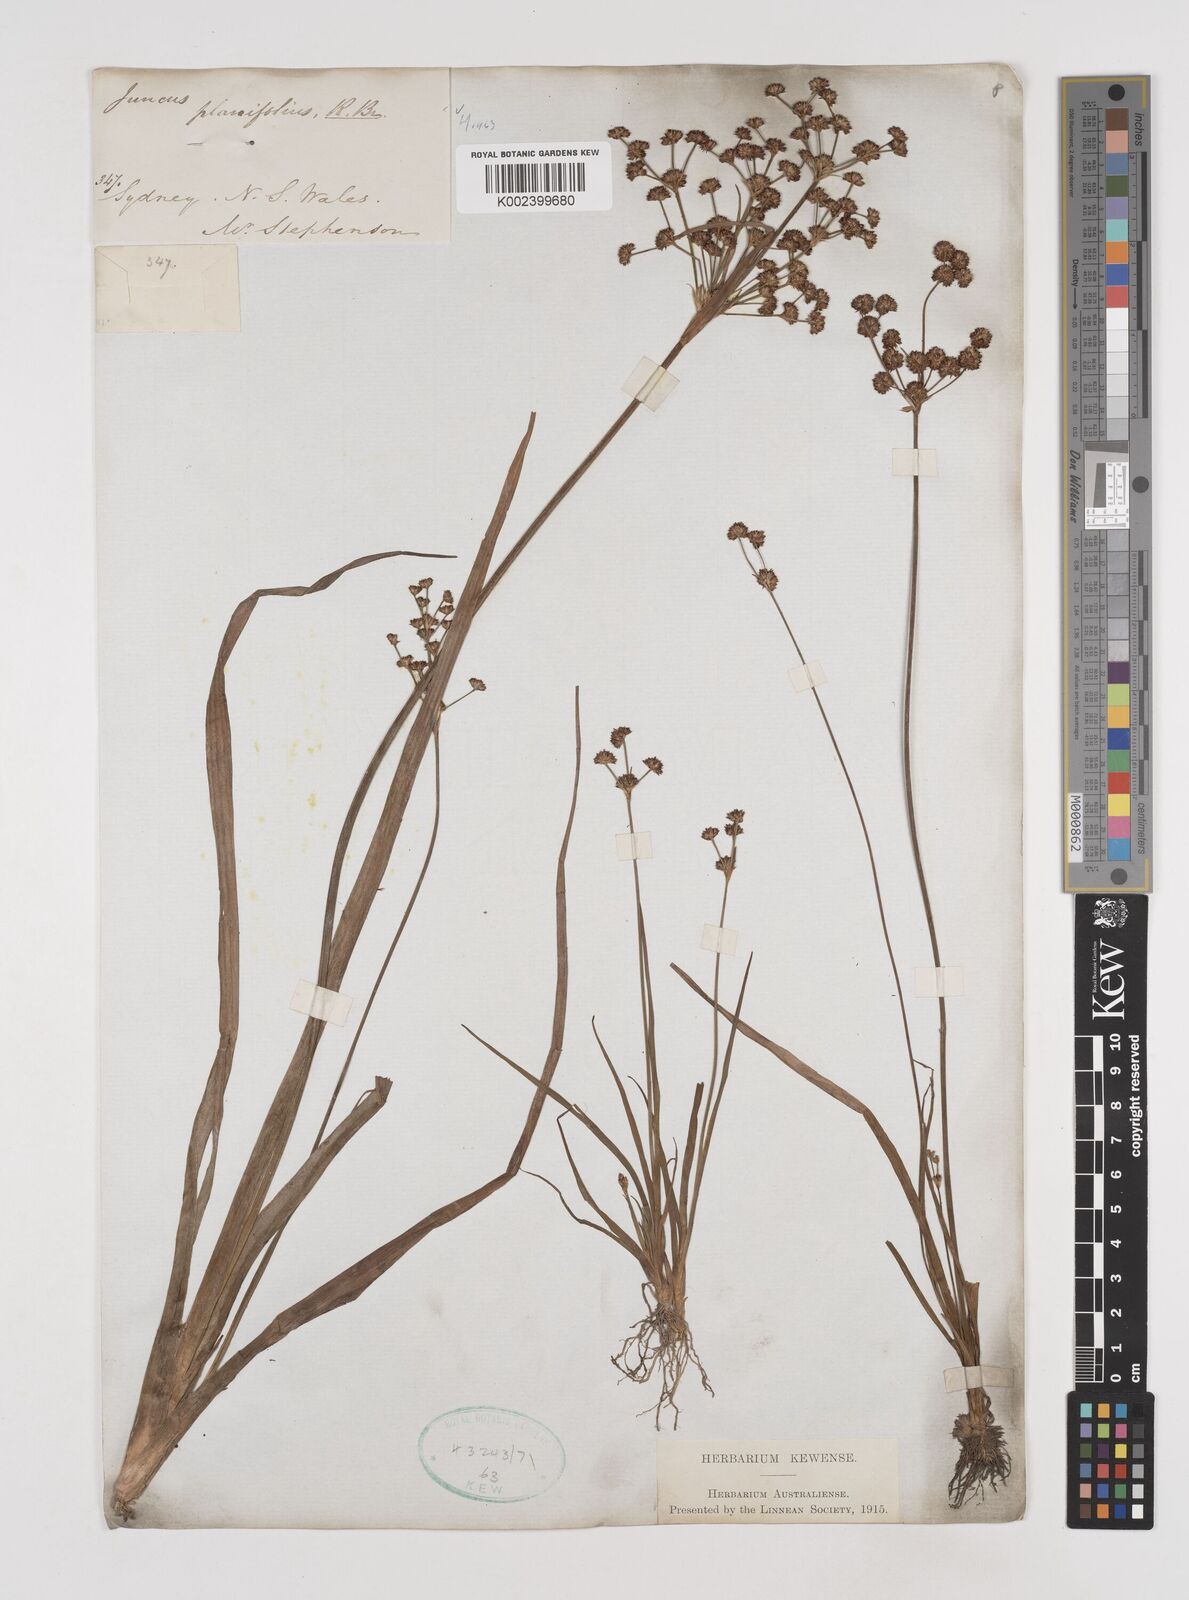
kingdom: Plantae
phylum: Tracheophyta
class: Liliopsida
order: Poales
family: Juncaceae
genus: Juncus
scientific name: Juncus planifolius
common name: Broadleaf rush
